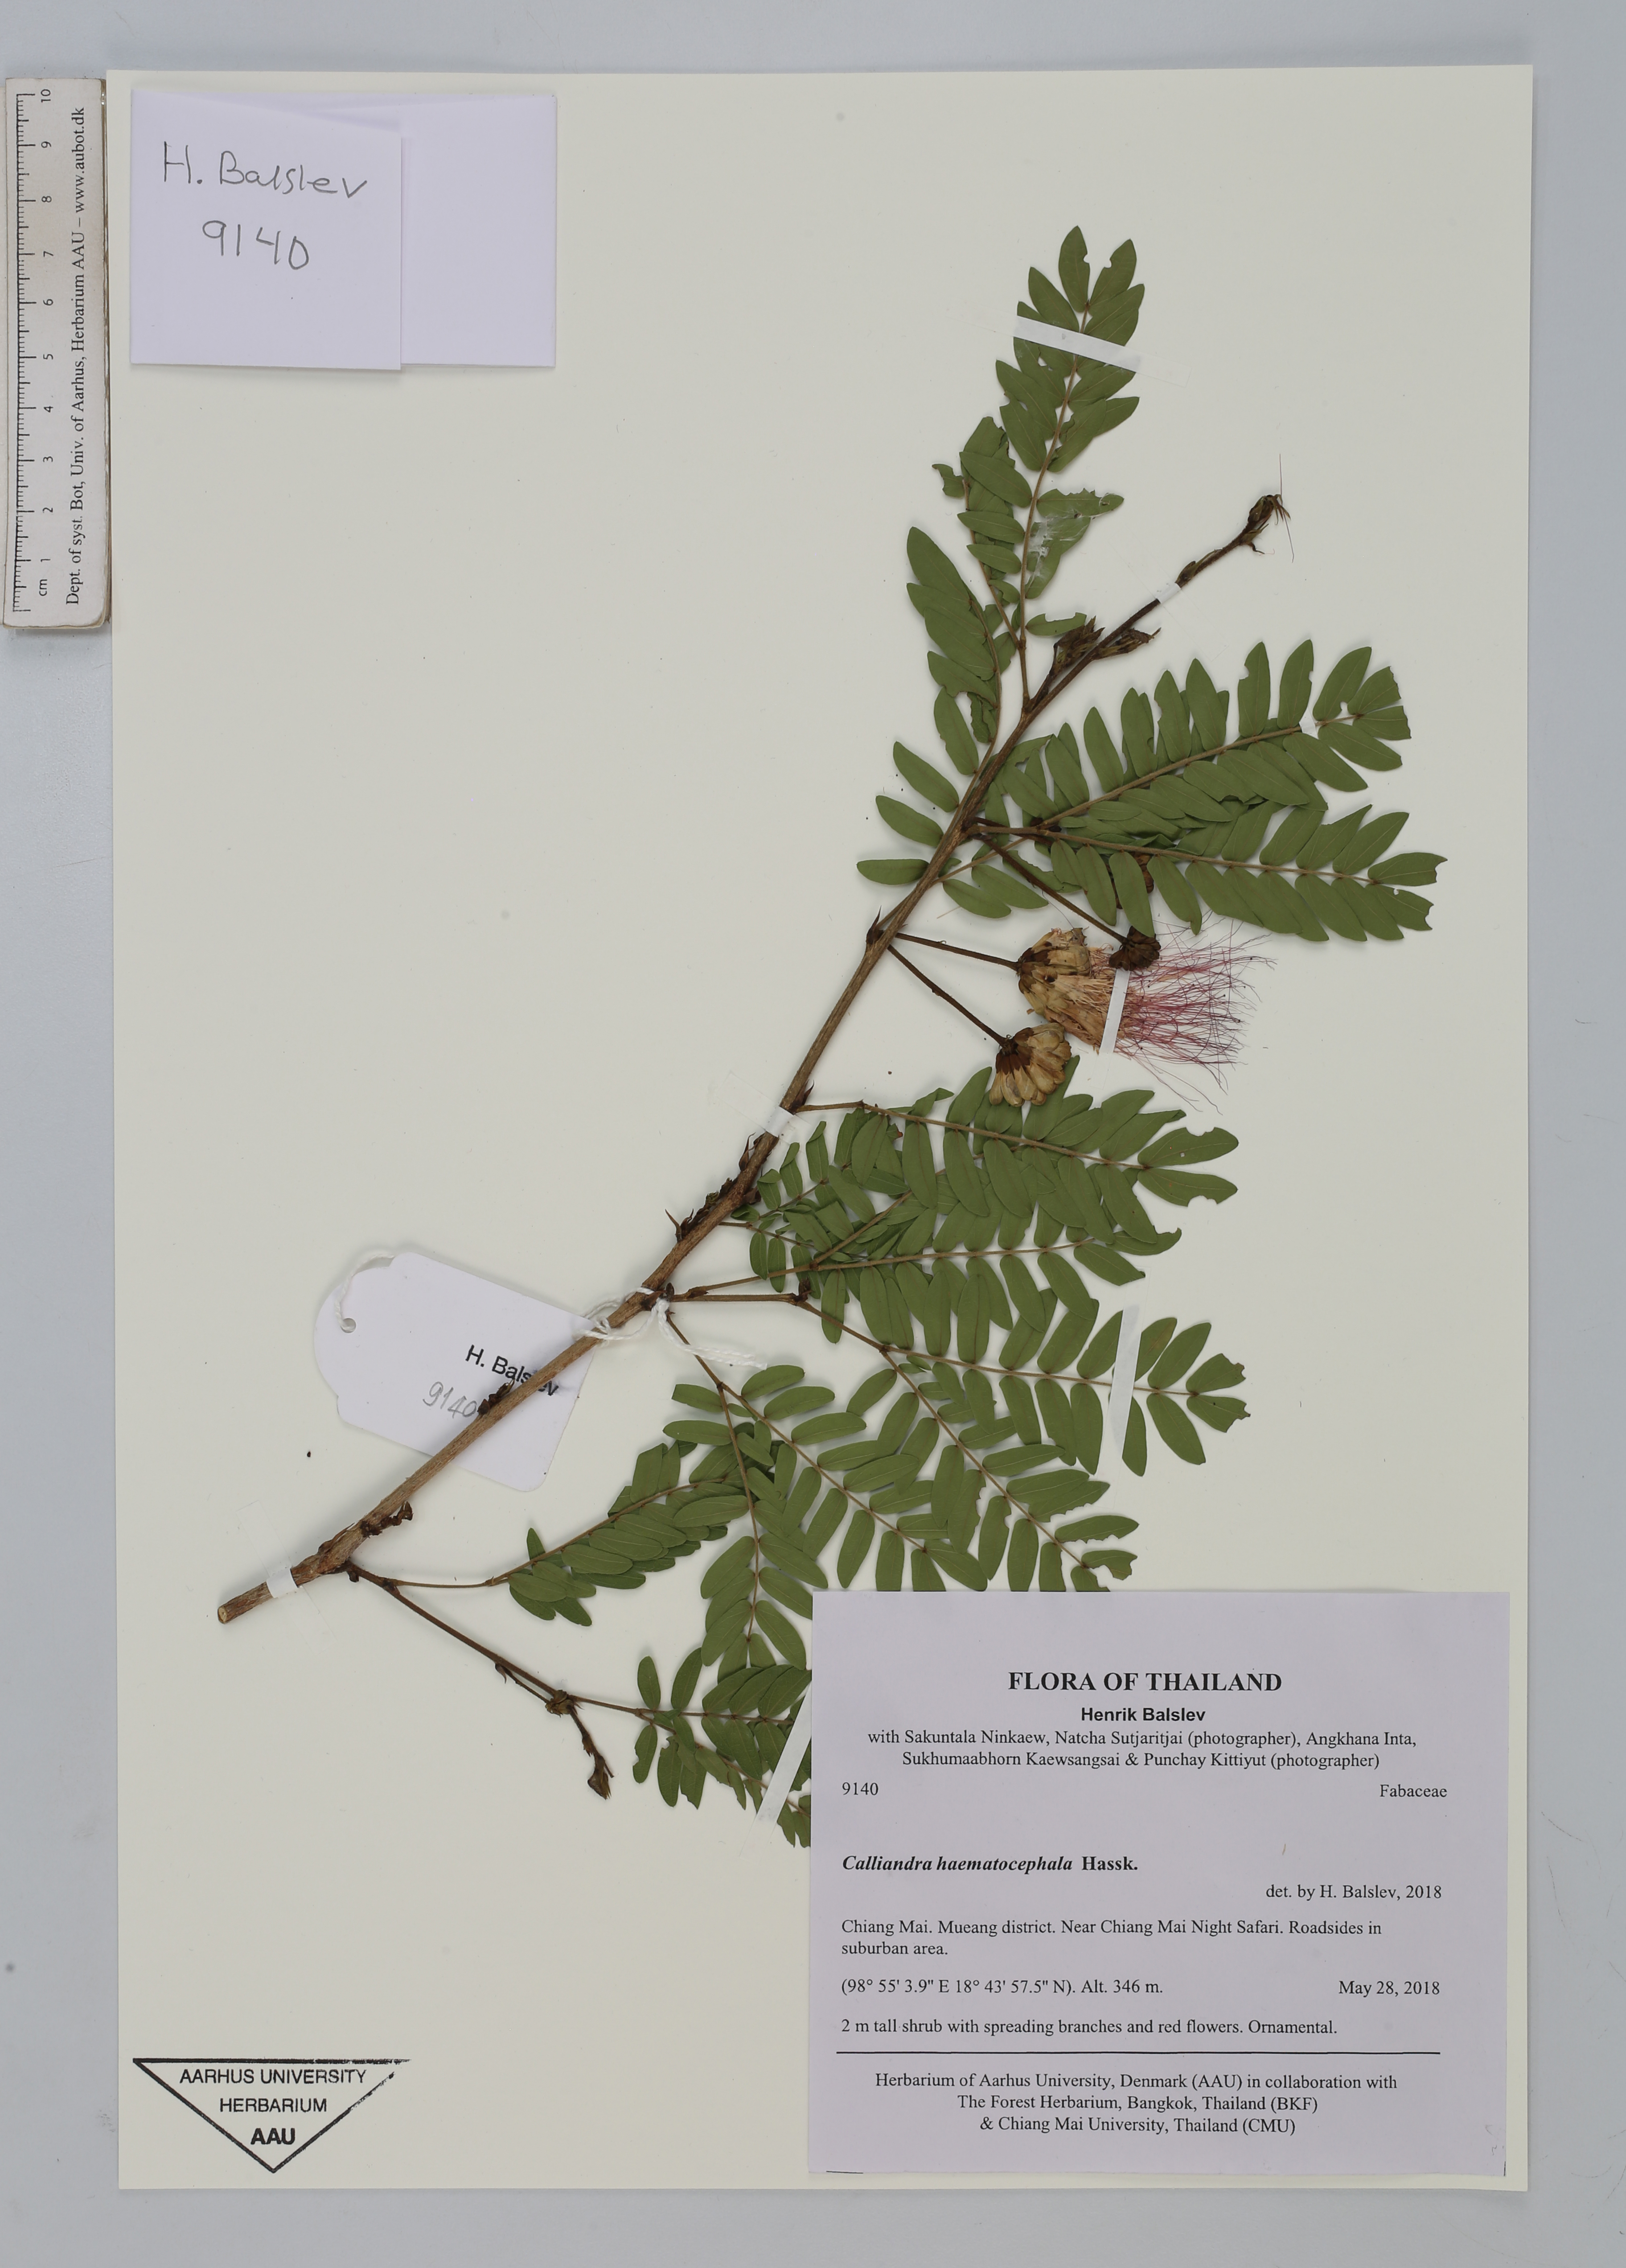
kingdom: Plantae
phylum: Tracheophyta
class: Magnoliopsida
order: Fabales
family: Fabaceae
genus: Calliandra
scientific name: Calliandra haematocephala
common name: Blood red tassel flower
